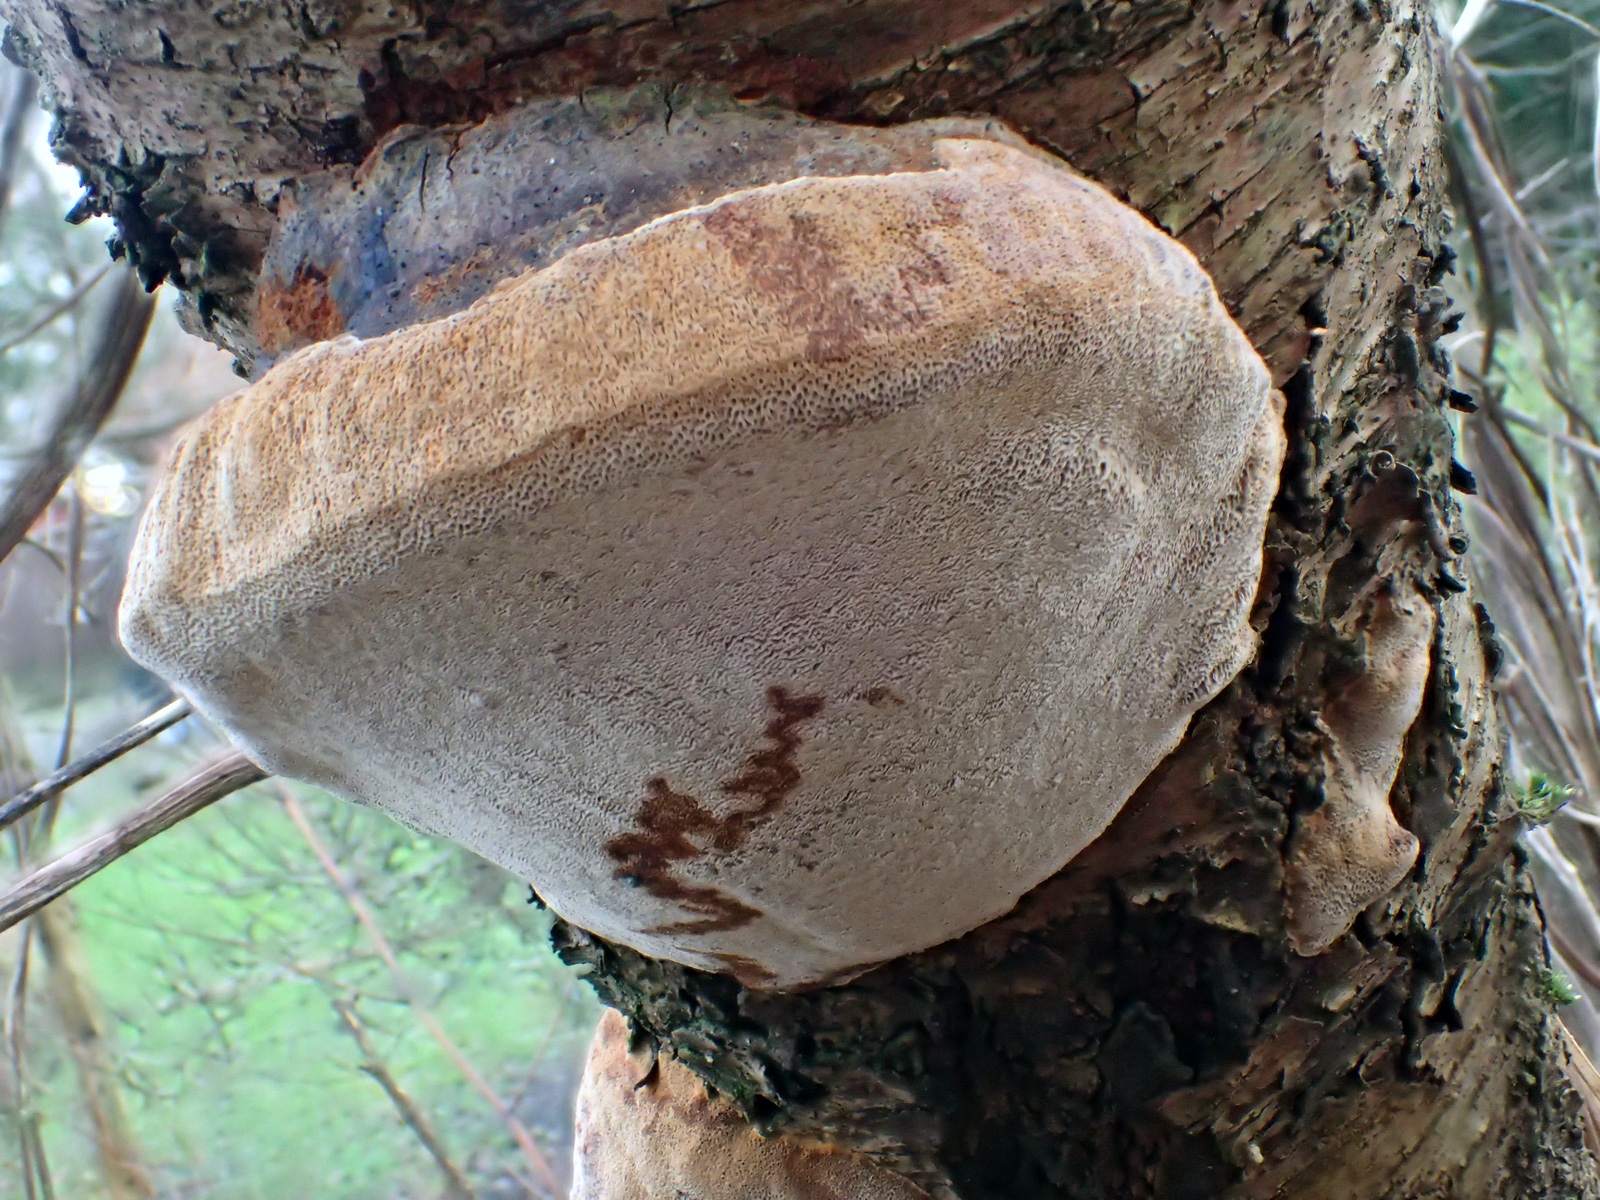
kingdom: Fungi
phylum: Basidiomycota
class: Agaricomycetes
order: Hymenochaetales
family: Hymenochaetaceae
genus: Phellinus
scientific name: Phellinus pomaceus
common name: blomme-ildporesvamp
